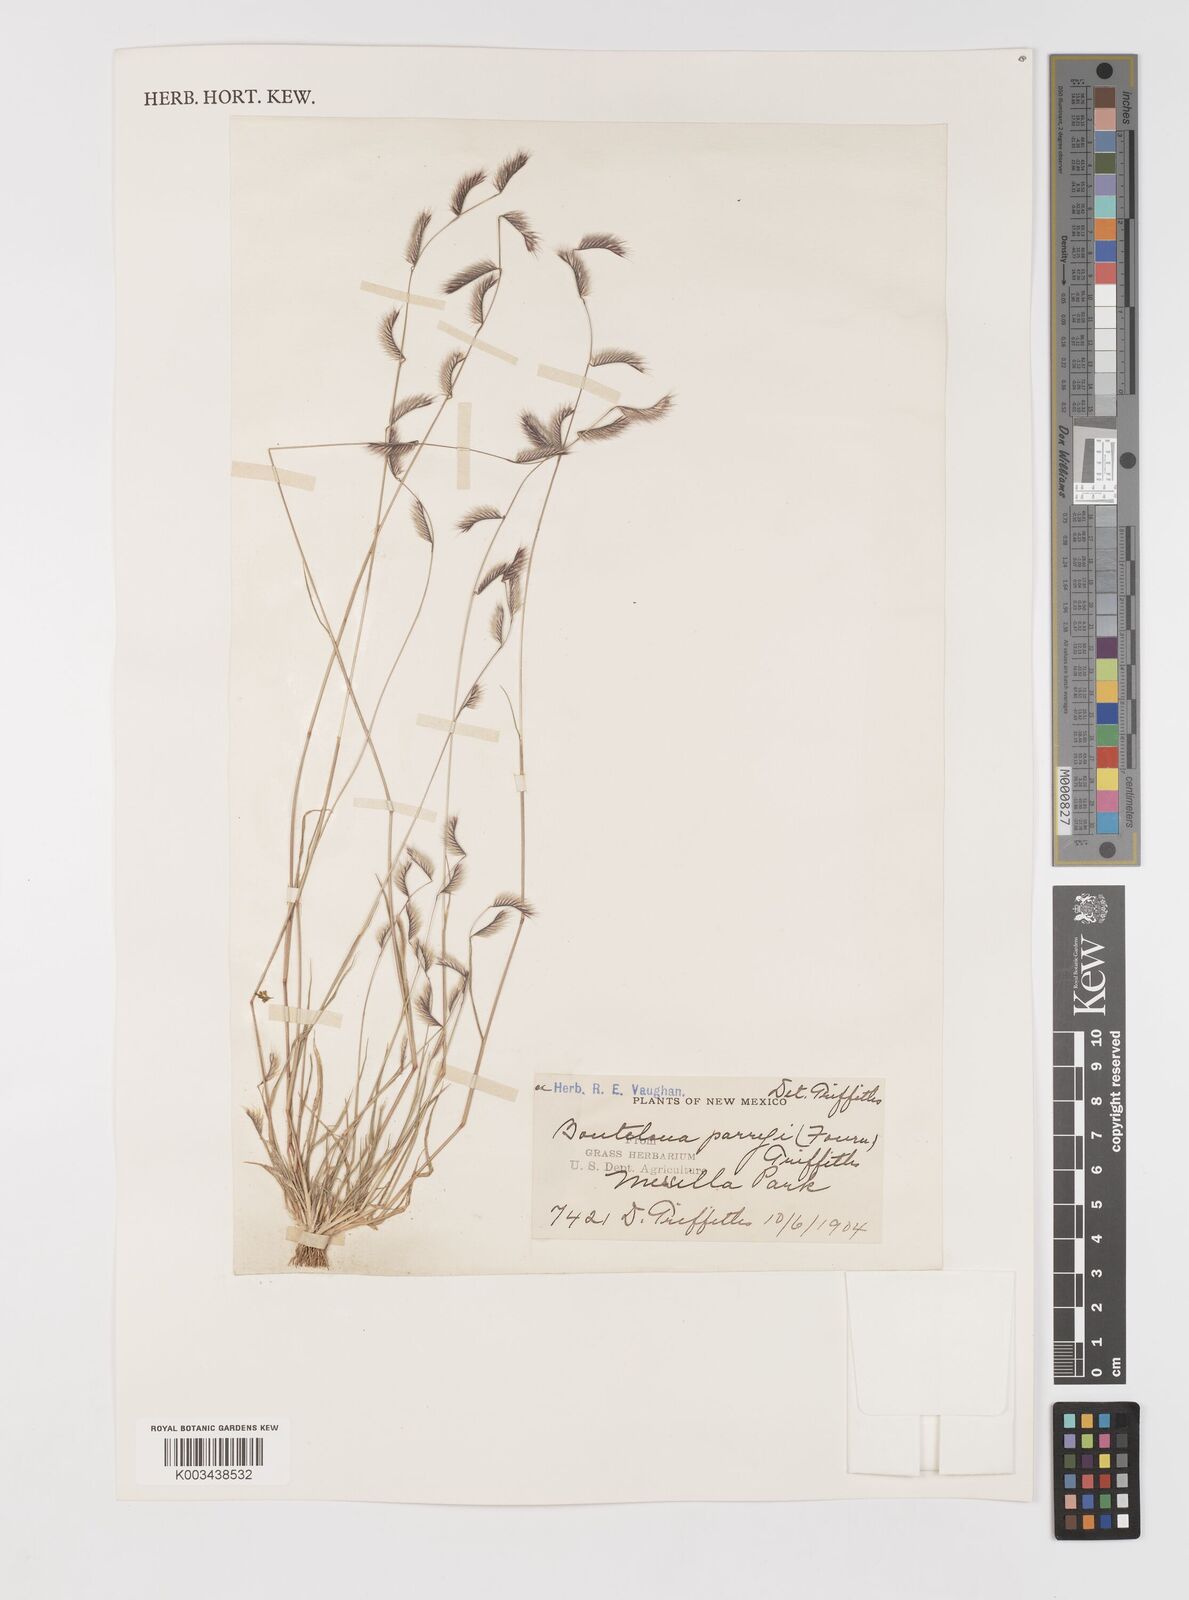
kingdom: Plantae
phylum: Tracheophyta
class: Liliopsida
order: Poales
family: Poaceae
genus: Bouteloua
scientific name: Bouteloua parryi
